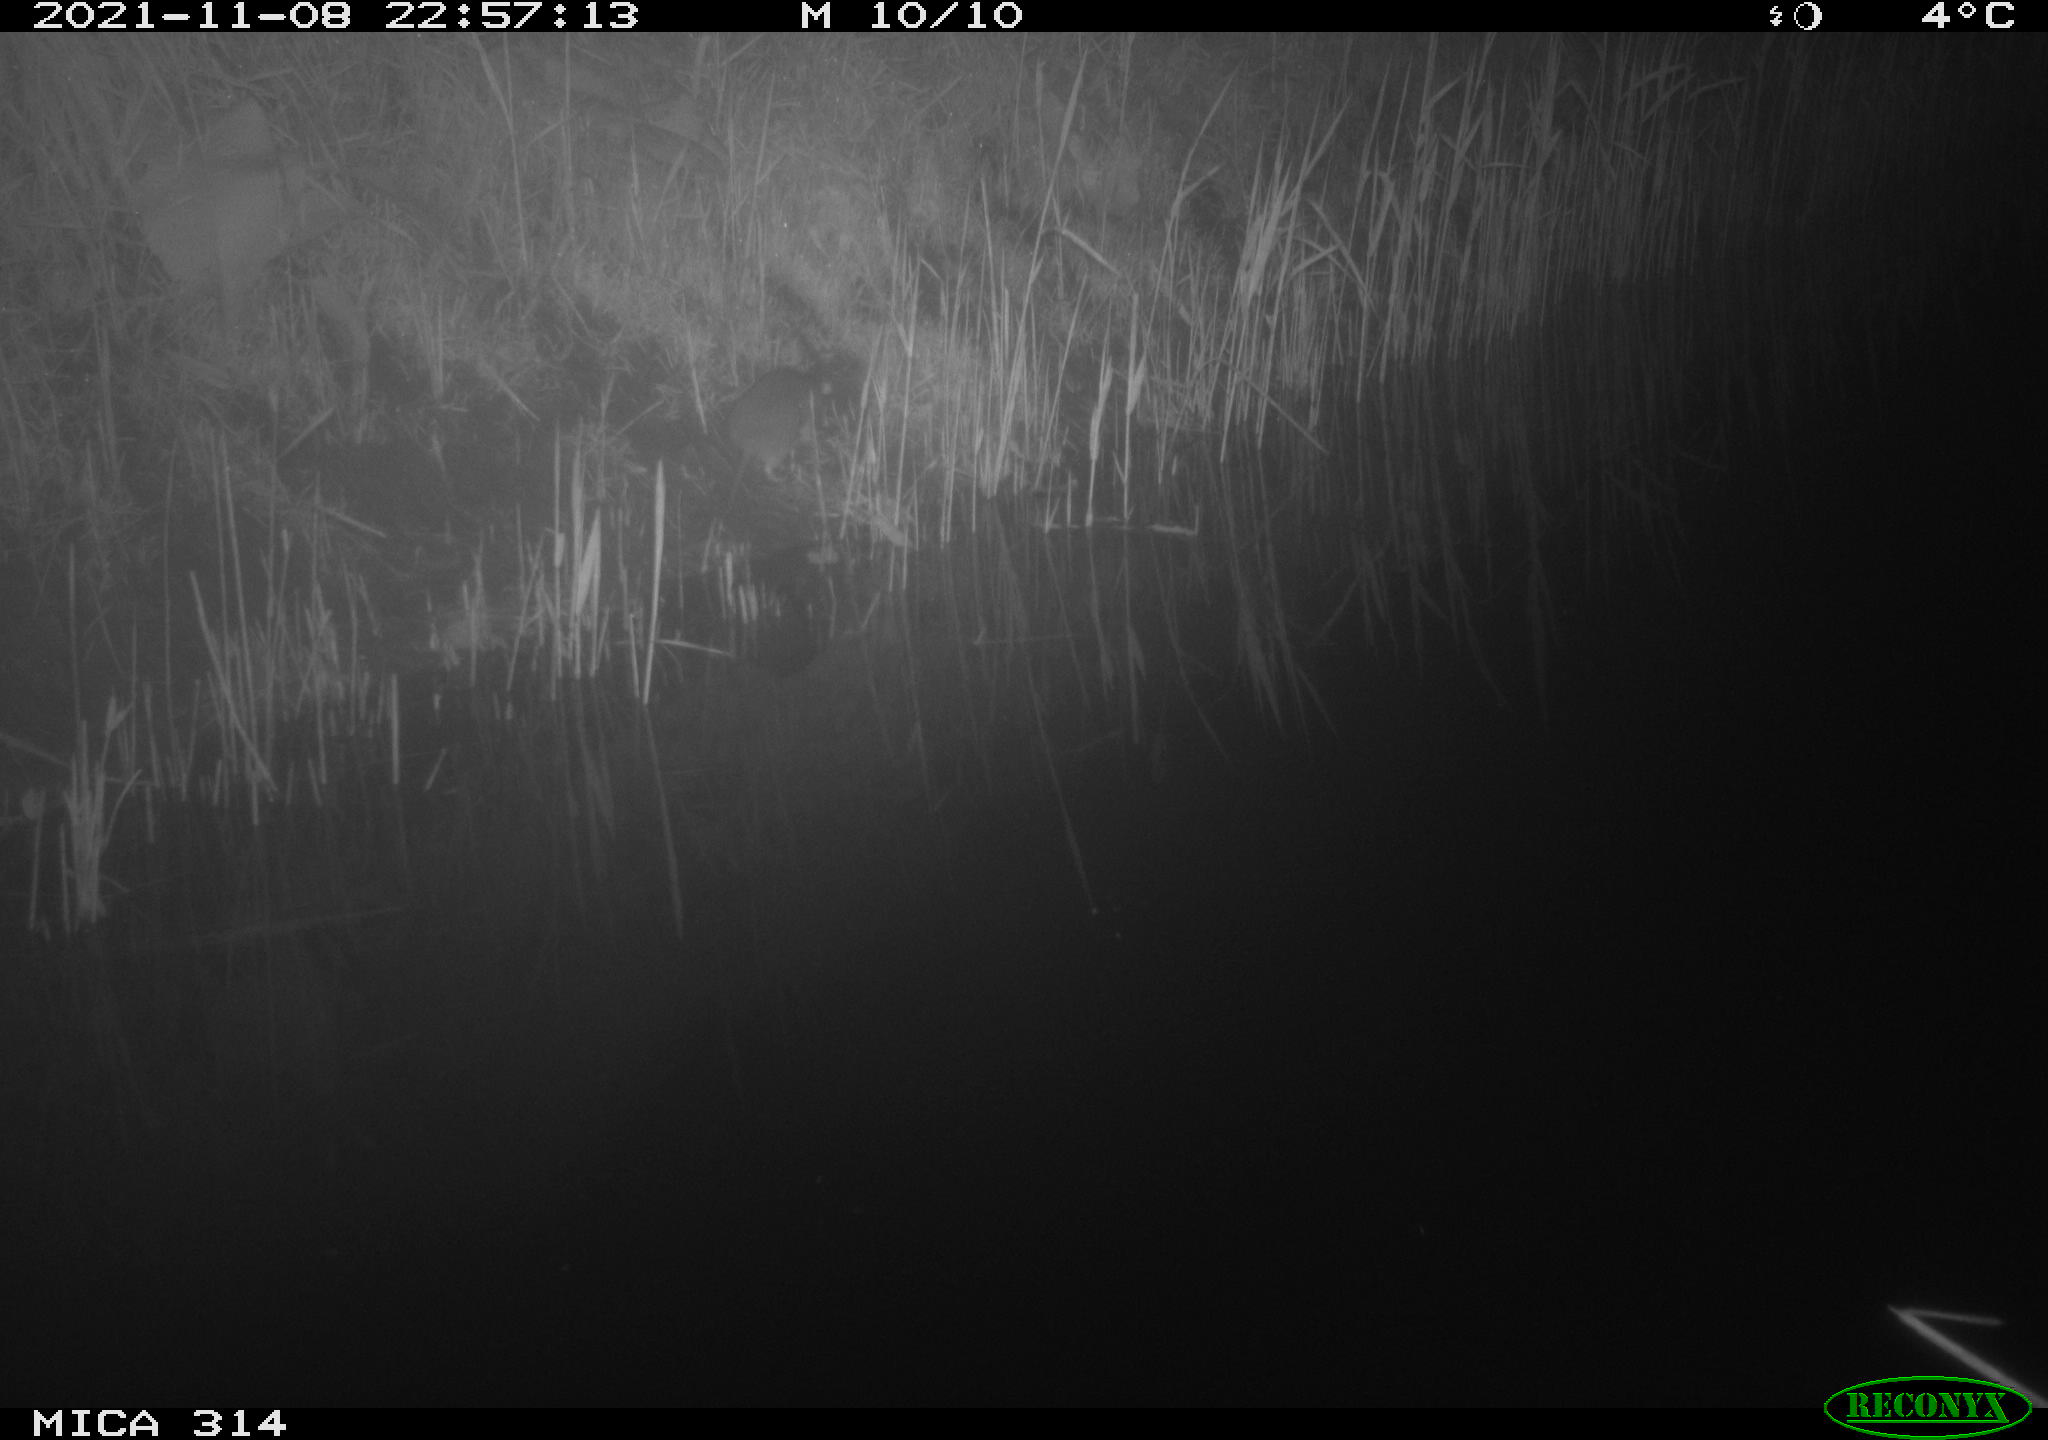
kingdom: Animalia
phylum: Chordata
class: Mammalia
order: Rodentia
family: Muridae
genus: Rattus
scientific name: Rattus norvegicus
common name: Brown rat
